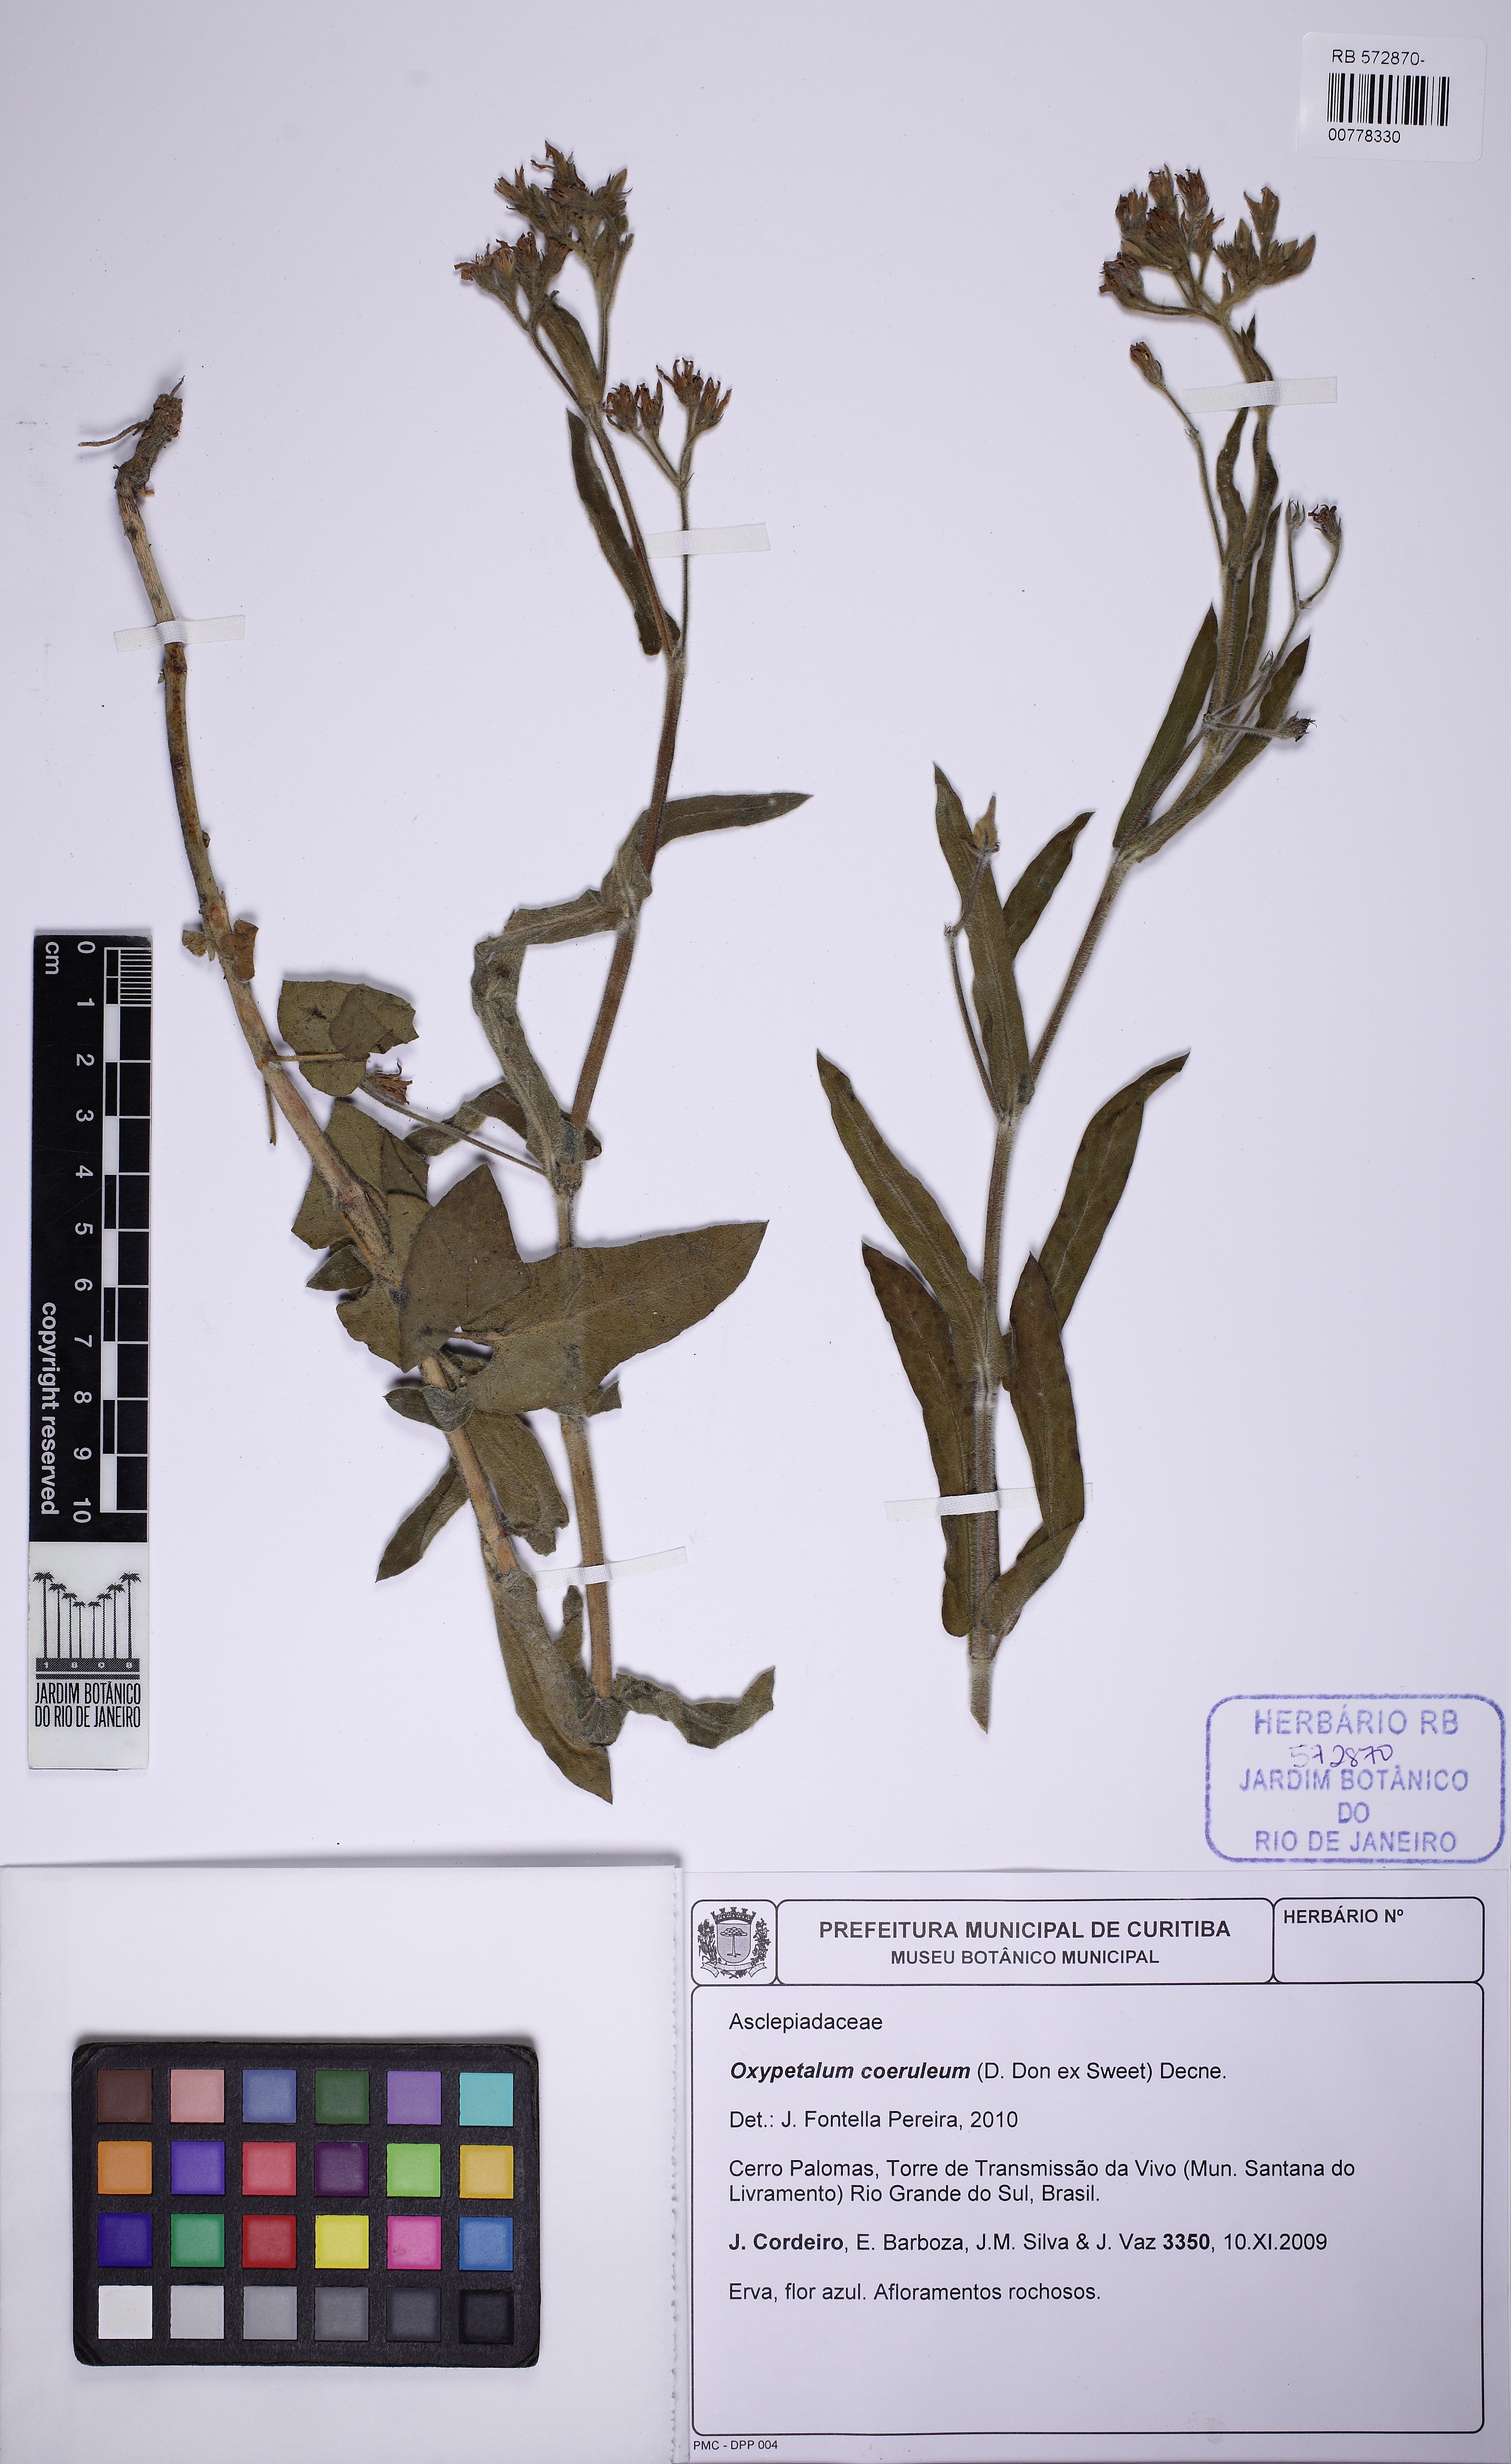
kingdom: Plantae
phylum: Tracheophyta
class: Magnoliopsida
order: Gentianales
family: Apocynaceae
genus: Oxypetalum
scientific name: Oxypetalum coeruleum
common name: Southern star
